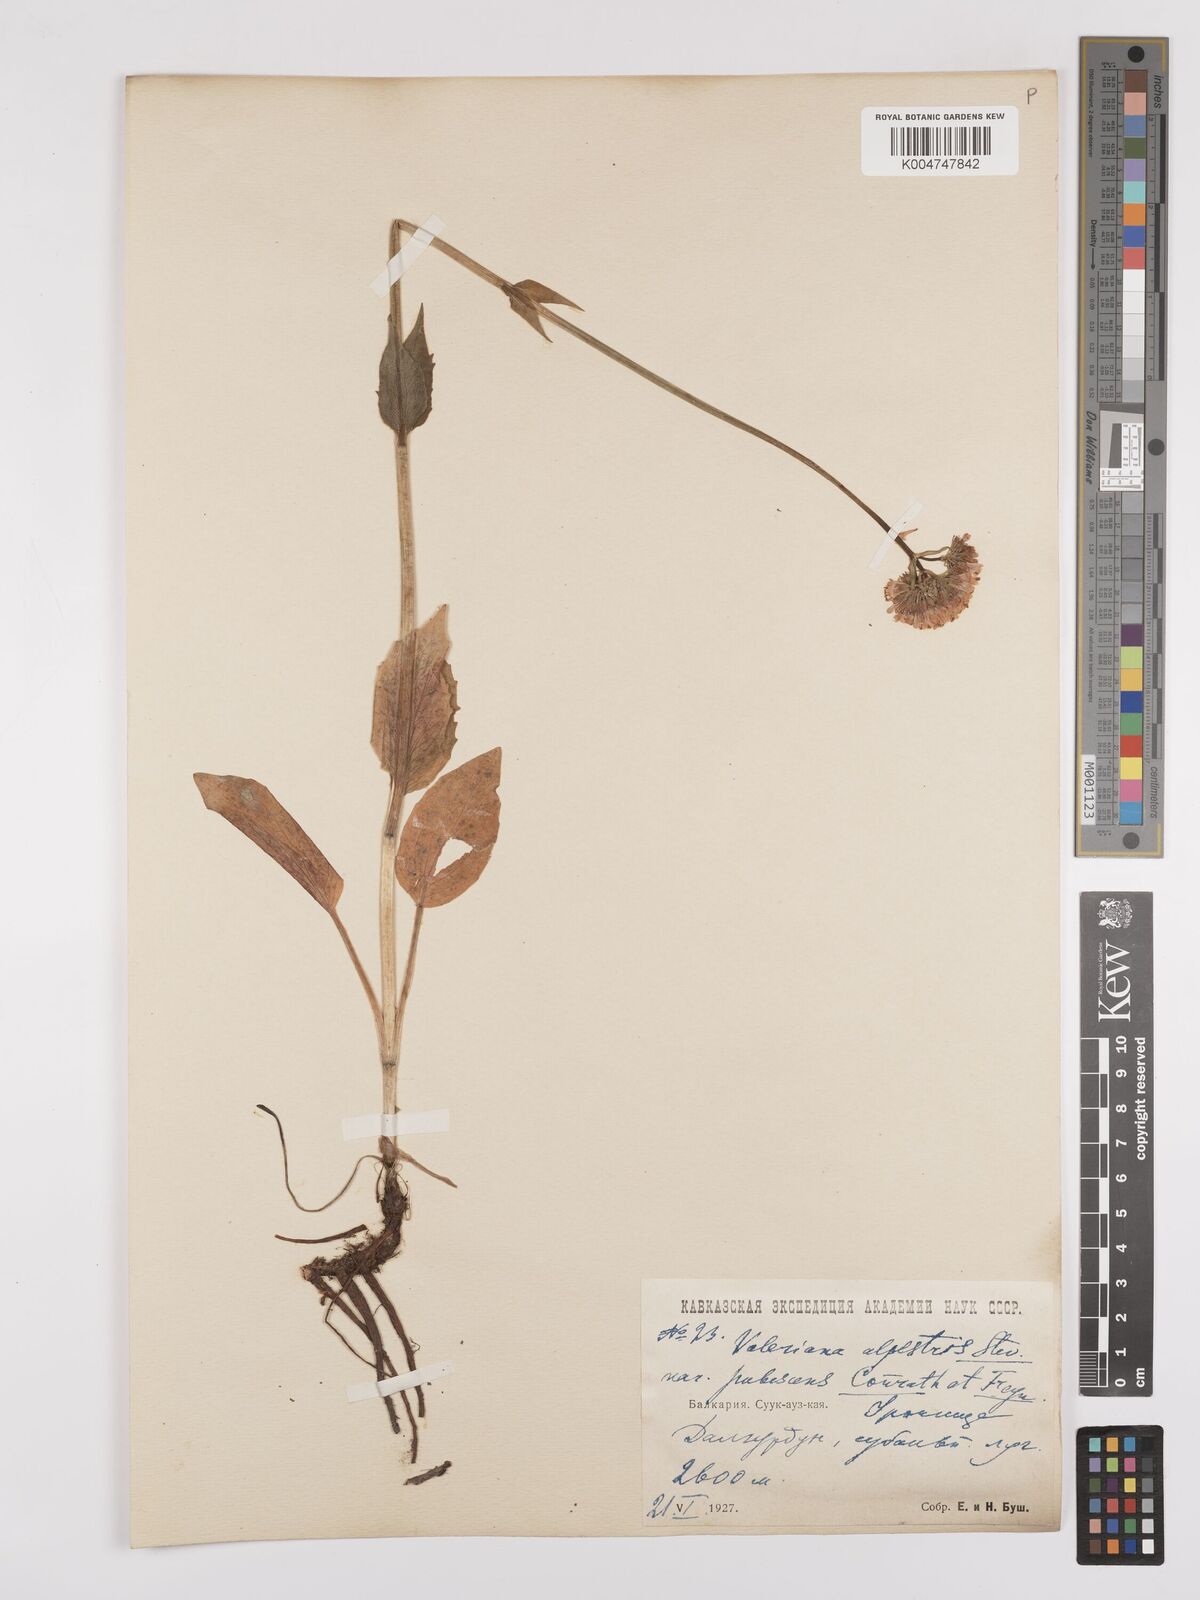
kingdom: Plantae
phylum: Tracheophyta
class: Magnoliopsida
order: Dipsacales
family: Caprifoliaceae
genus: Valeriana
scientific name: Valeriana alpestris
